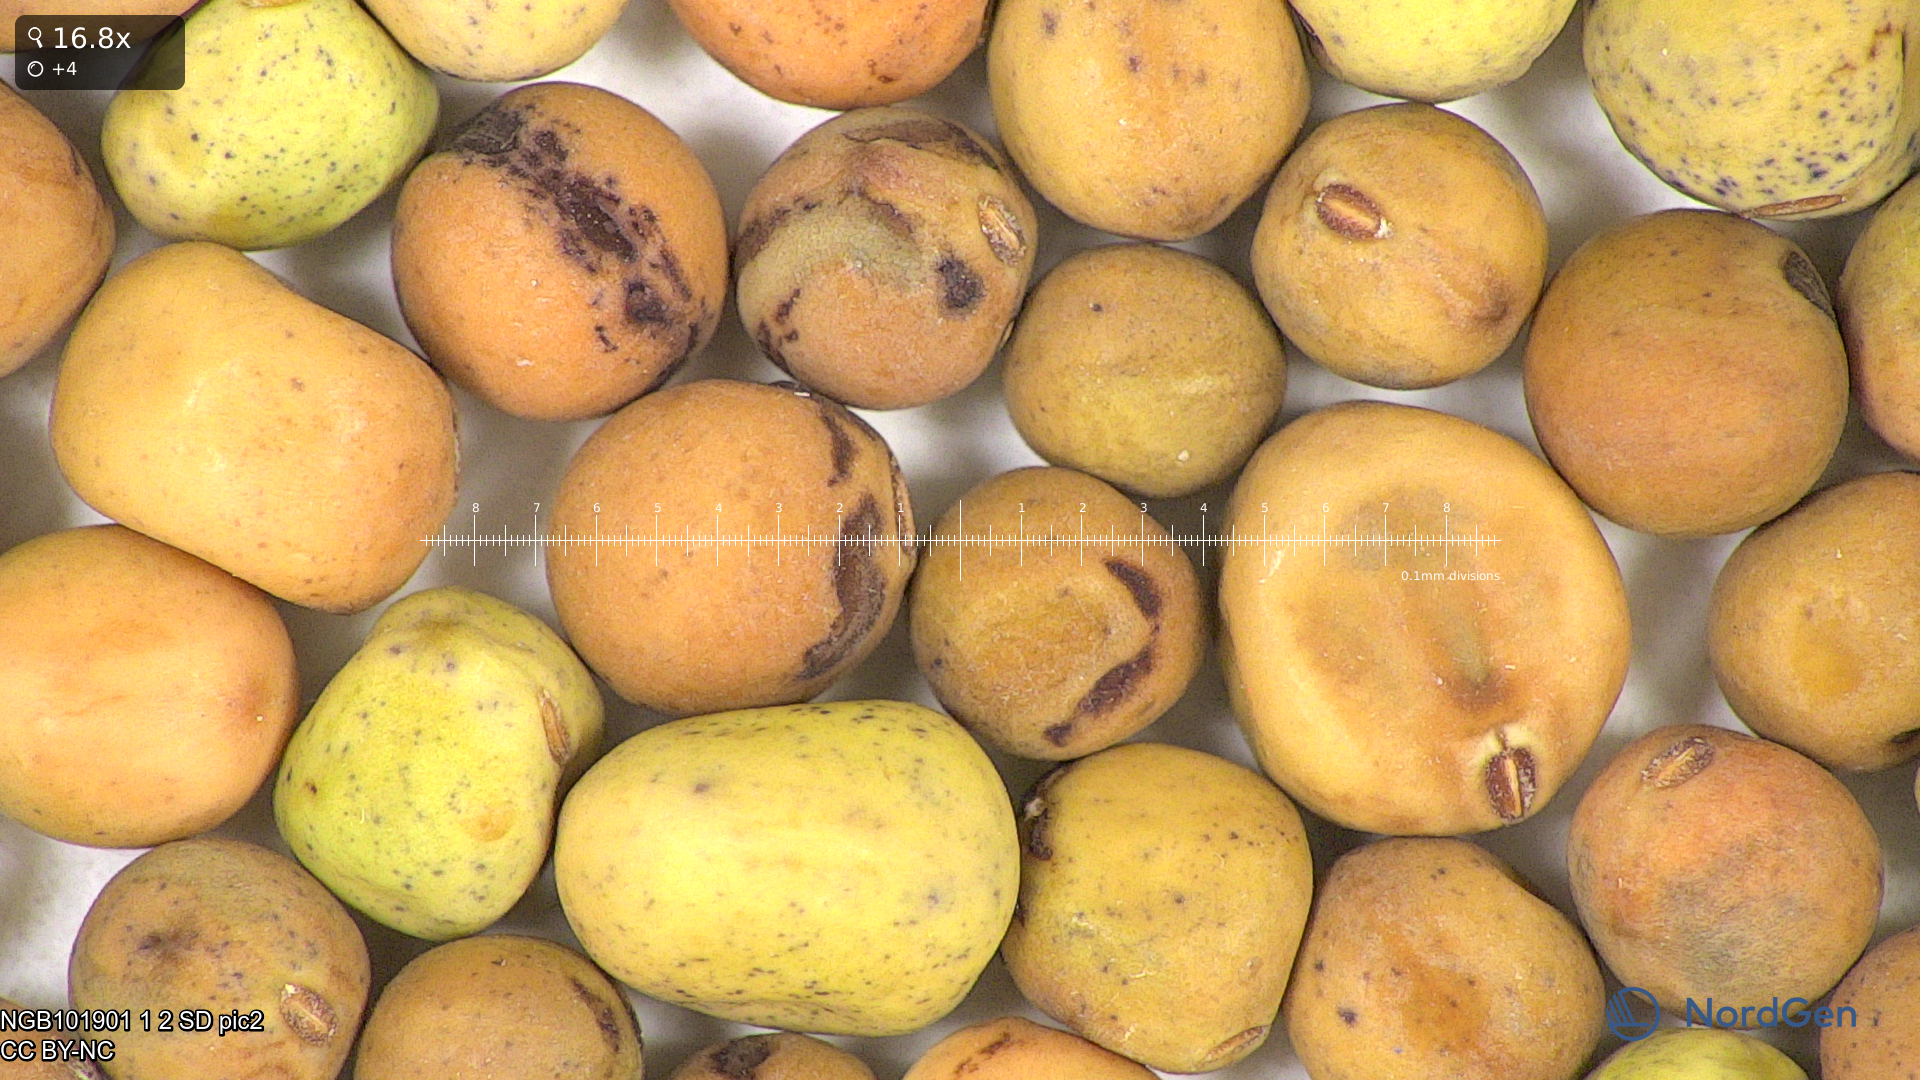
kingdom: Plantae
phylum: Tracheophyta
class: Magnoliopsida
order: Fabales
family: Fabaceae
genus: Lathyrus
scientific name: Lathyrus oleraceus
